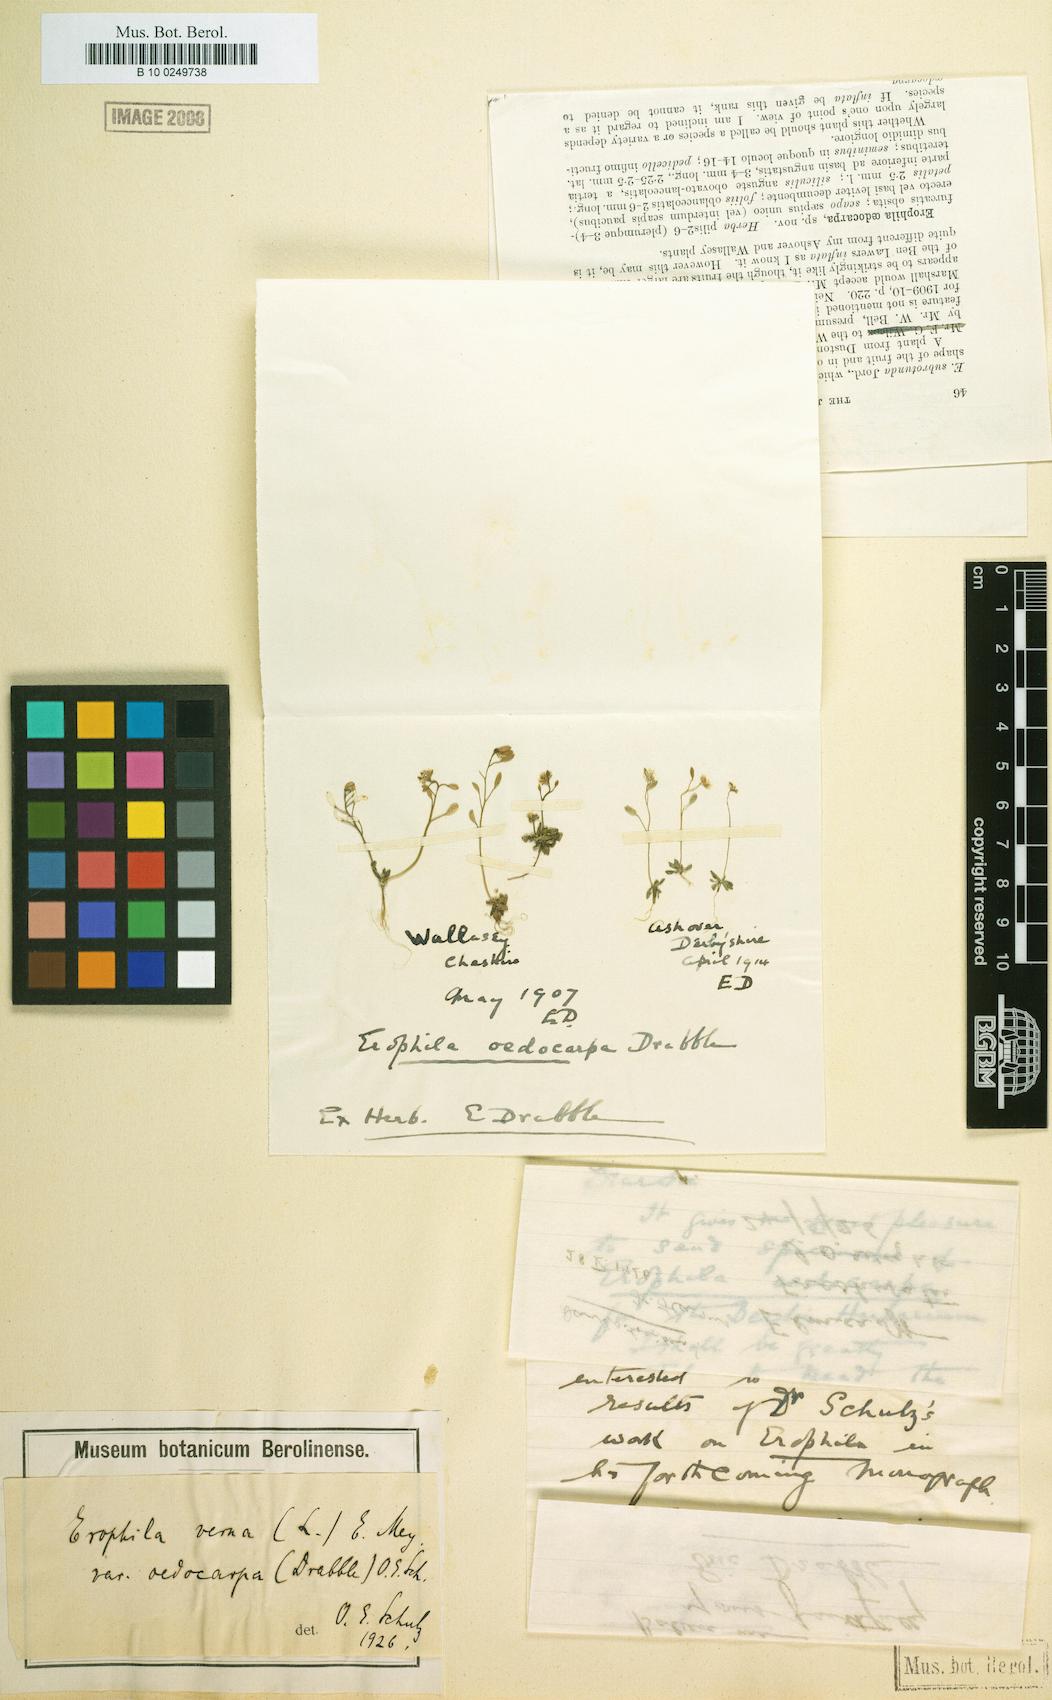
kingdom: Plantae
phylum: Tracheophyta
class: Magnoliopsida
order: Brassicales
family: Brassicaceae
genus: Draba
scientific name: Draba verna
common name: Spring draba
